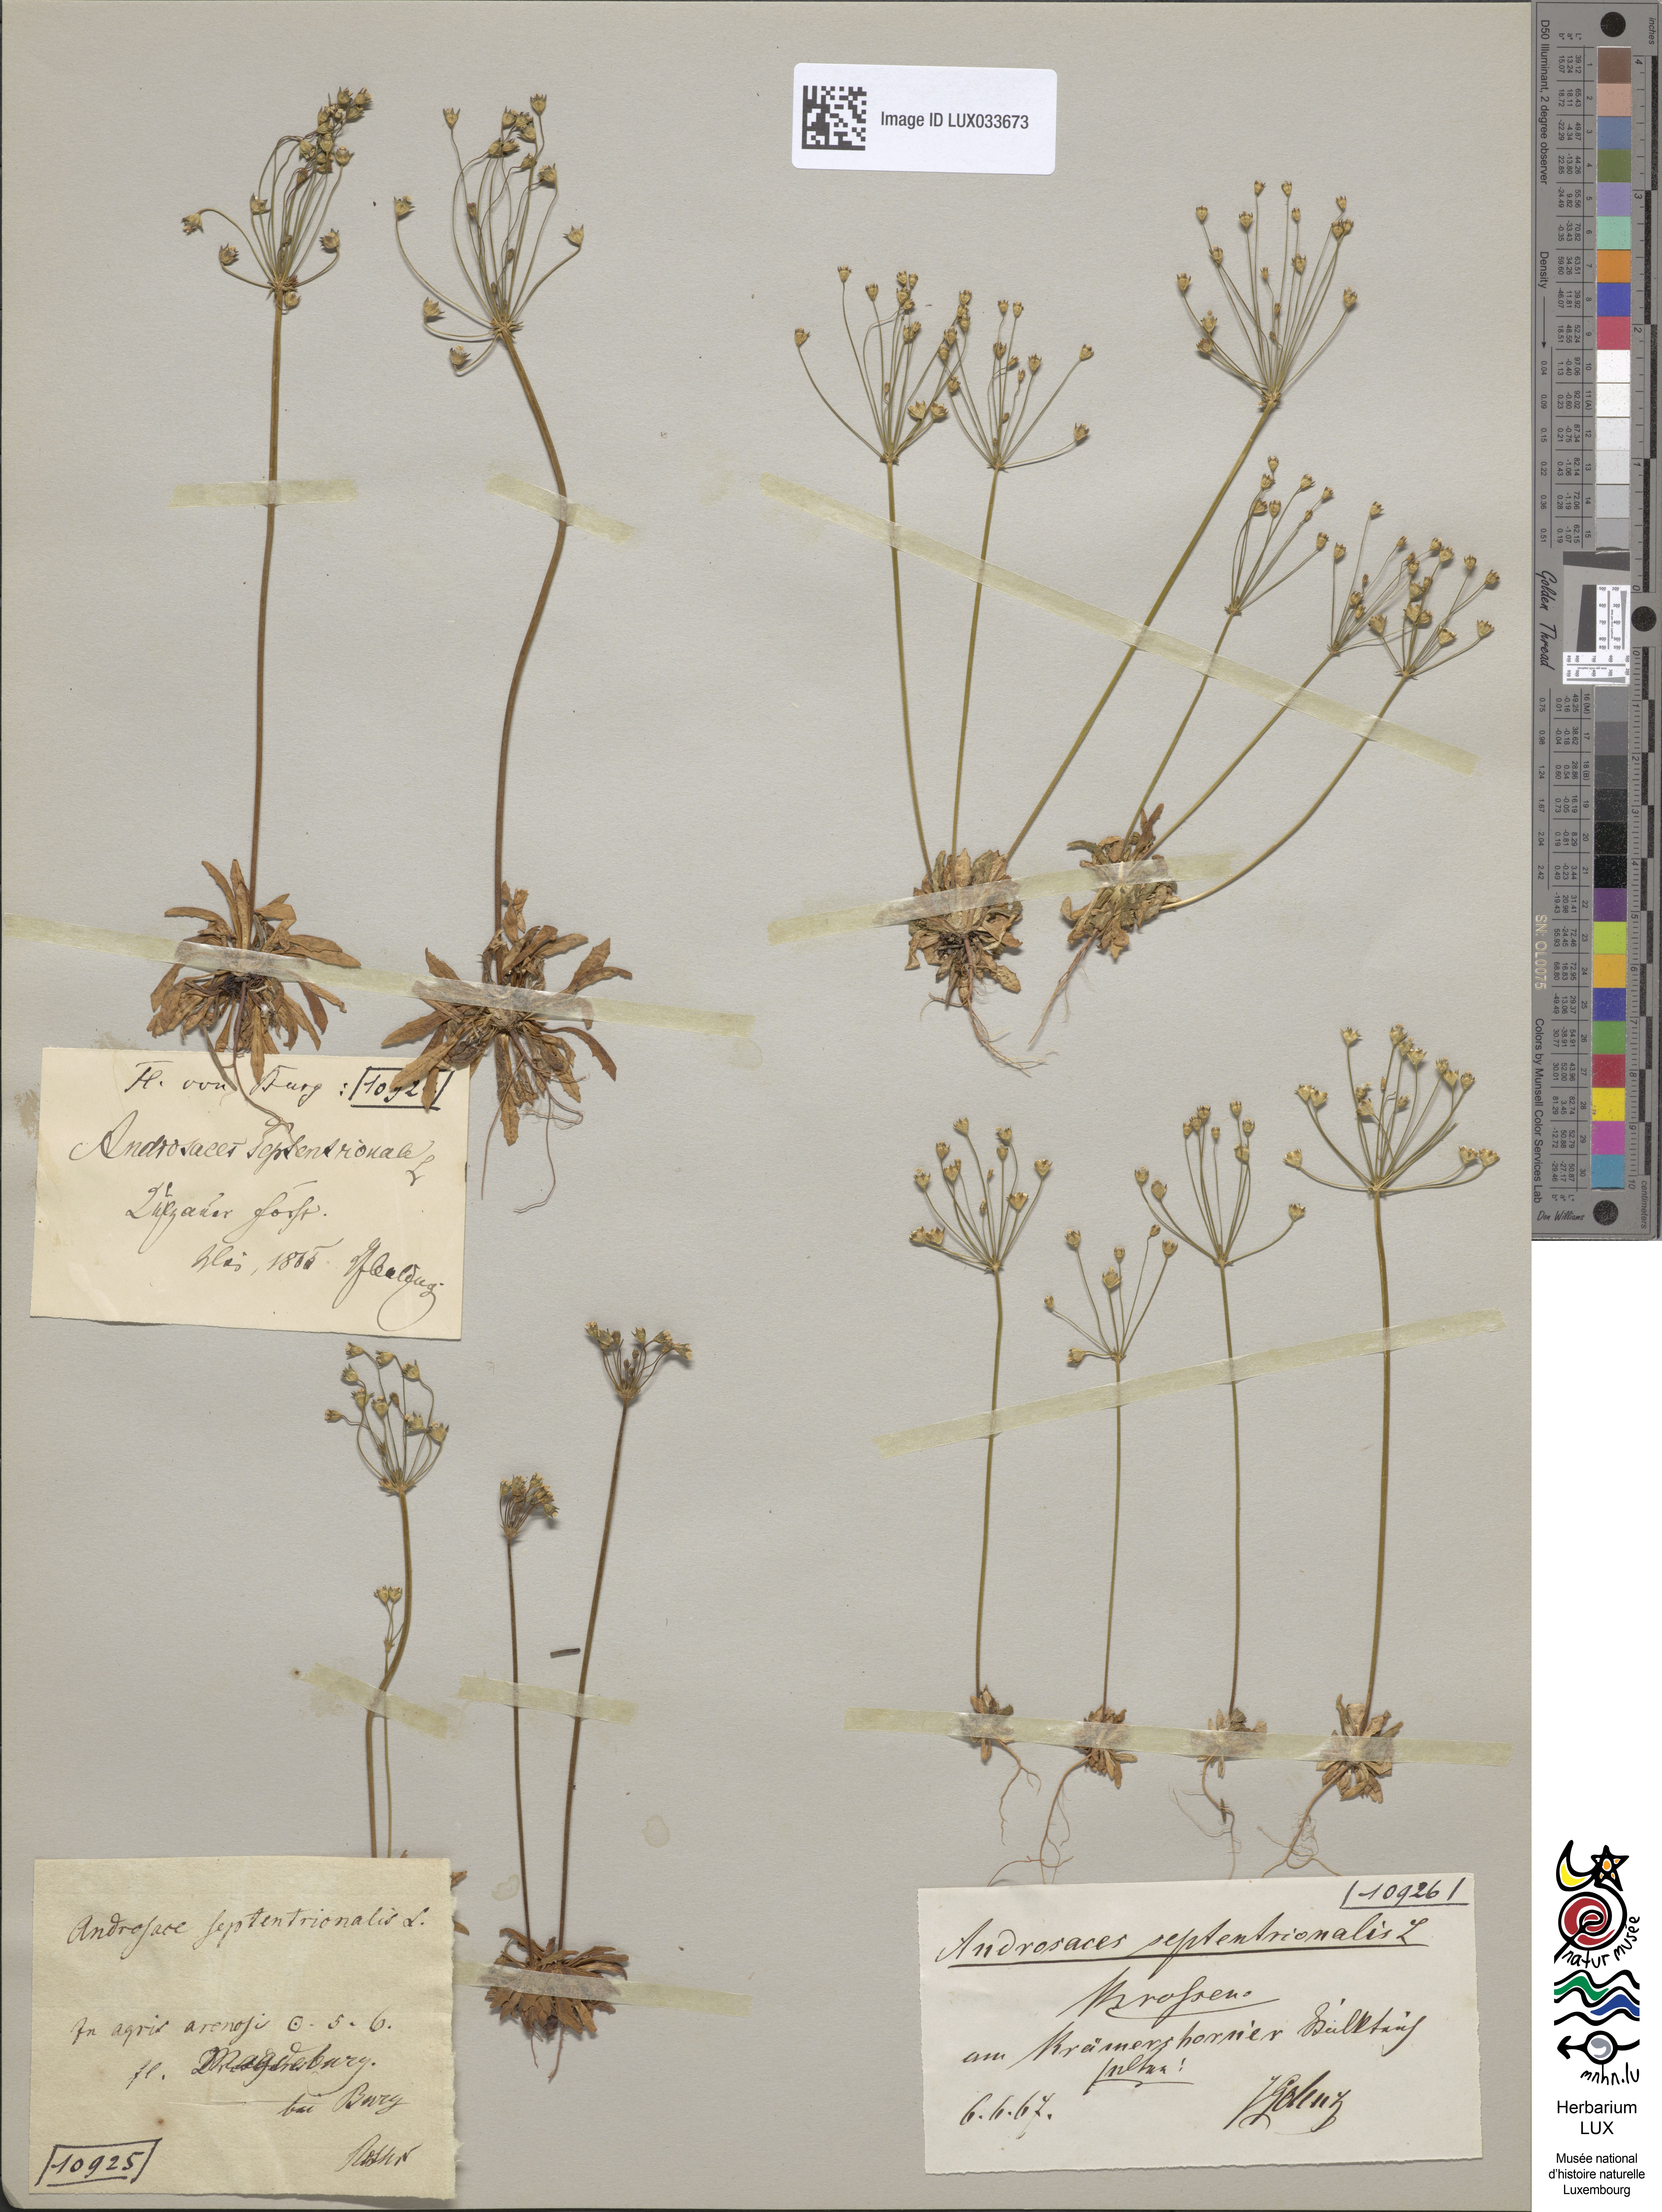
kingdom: Plantae
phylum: Tracheophyta
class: Magnoliopsida
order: Ericales
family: Primulaceae
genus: Androsace
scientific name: Androsace septentrionalis
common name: Hairy northern fairy-candelabra
